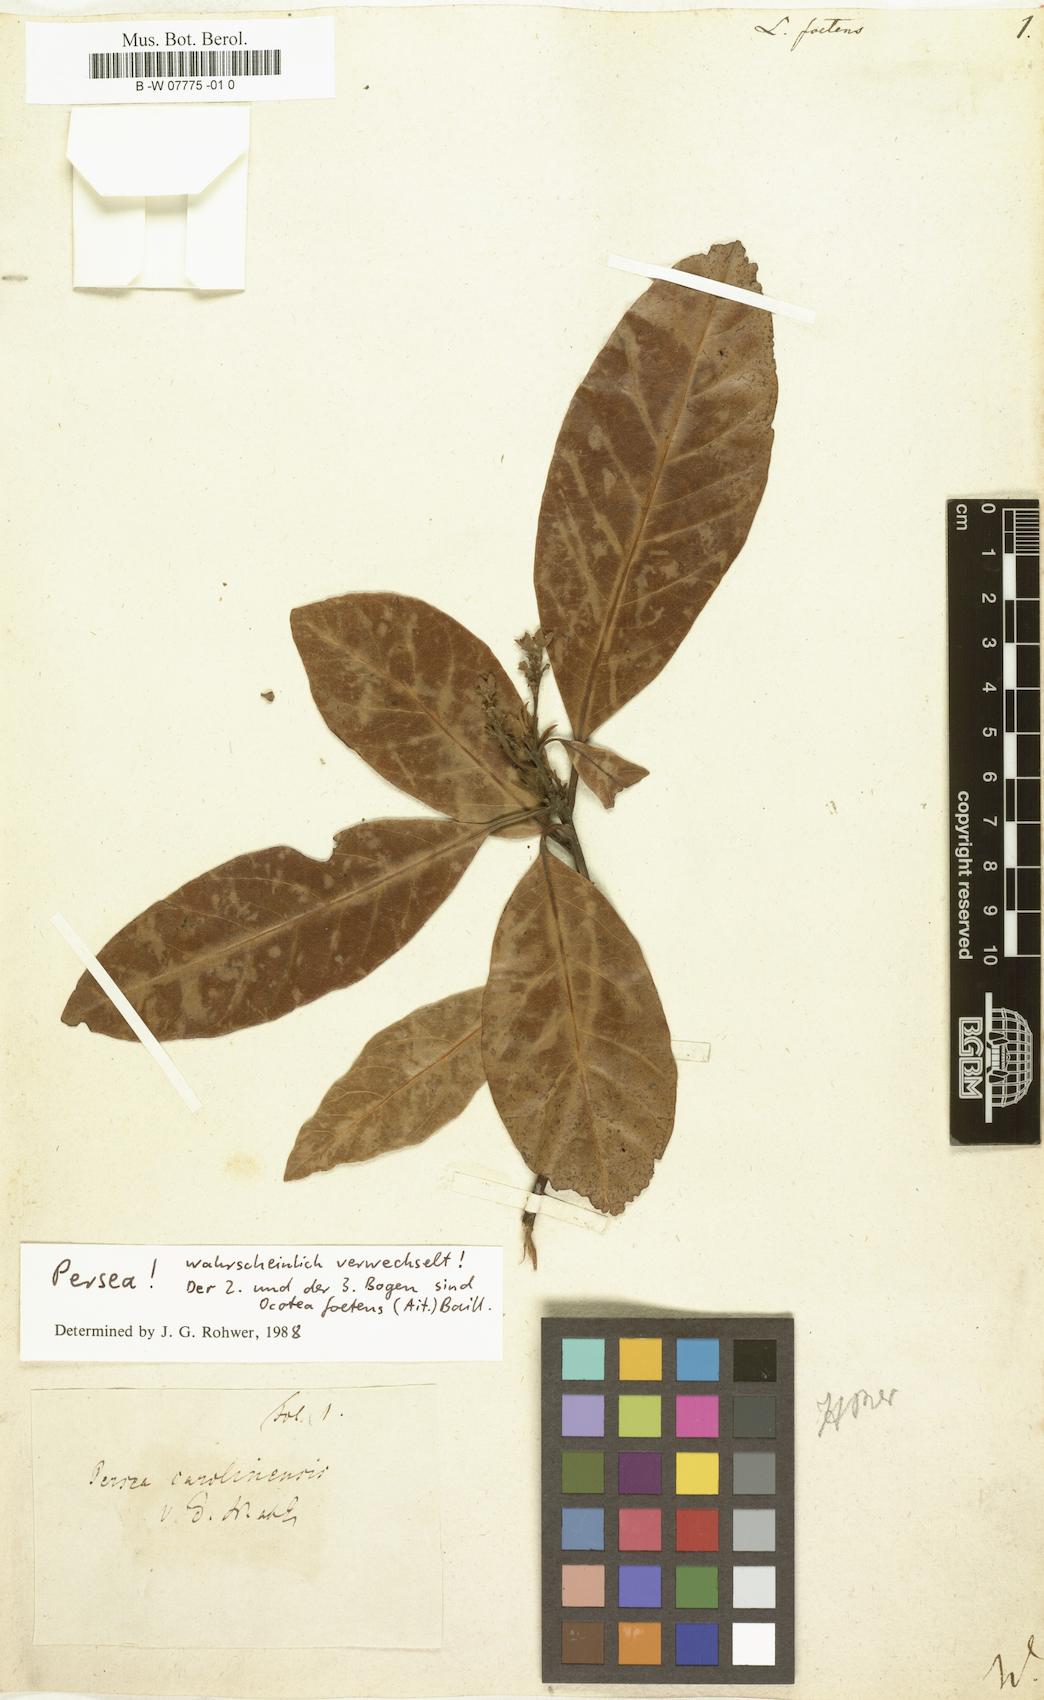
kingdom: Plantae
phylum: Tracheophyta
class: Magnoliopsida
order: Laurales
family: Lauraceae
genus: Persea
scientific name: Persea borbonia
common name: Redbay
